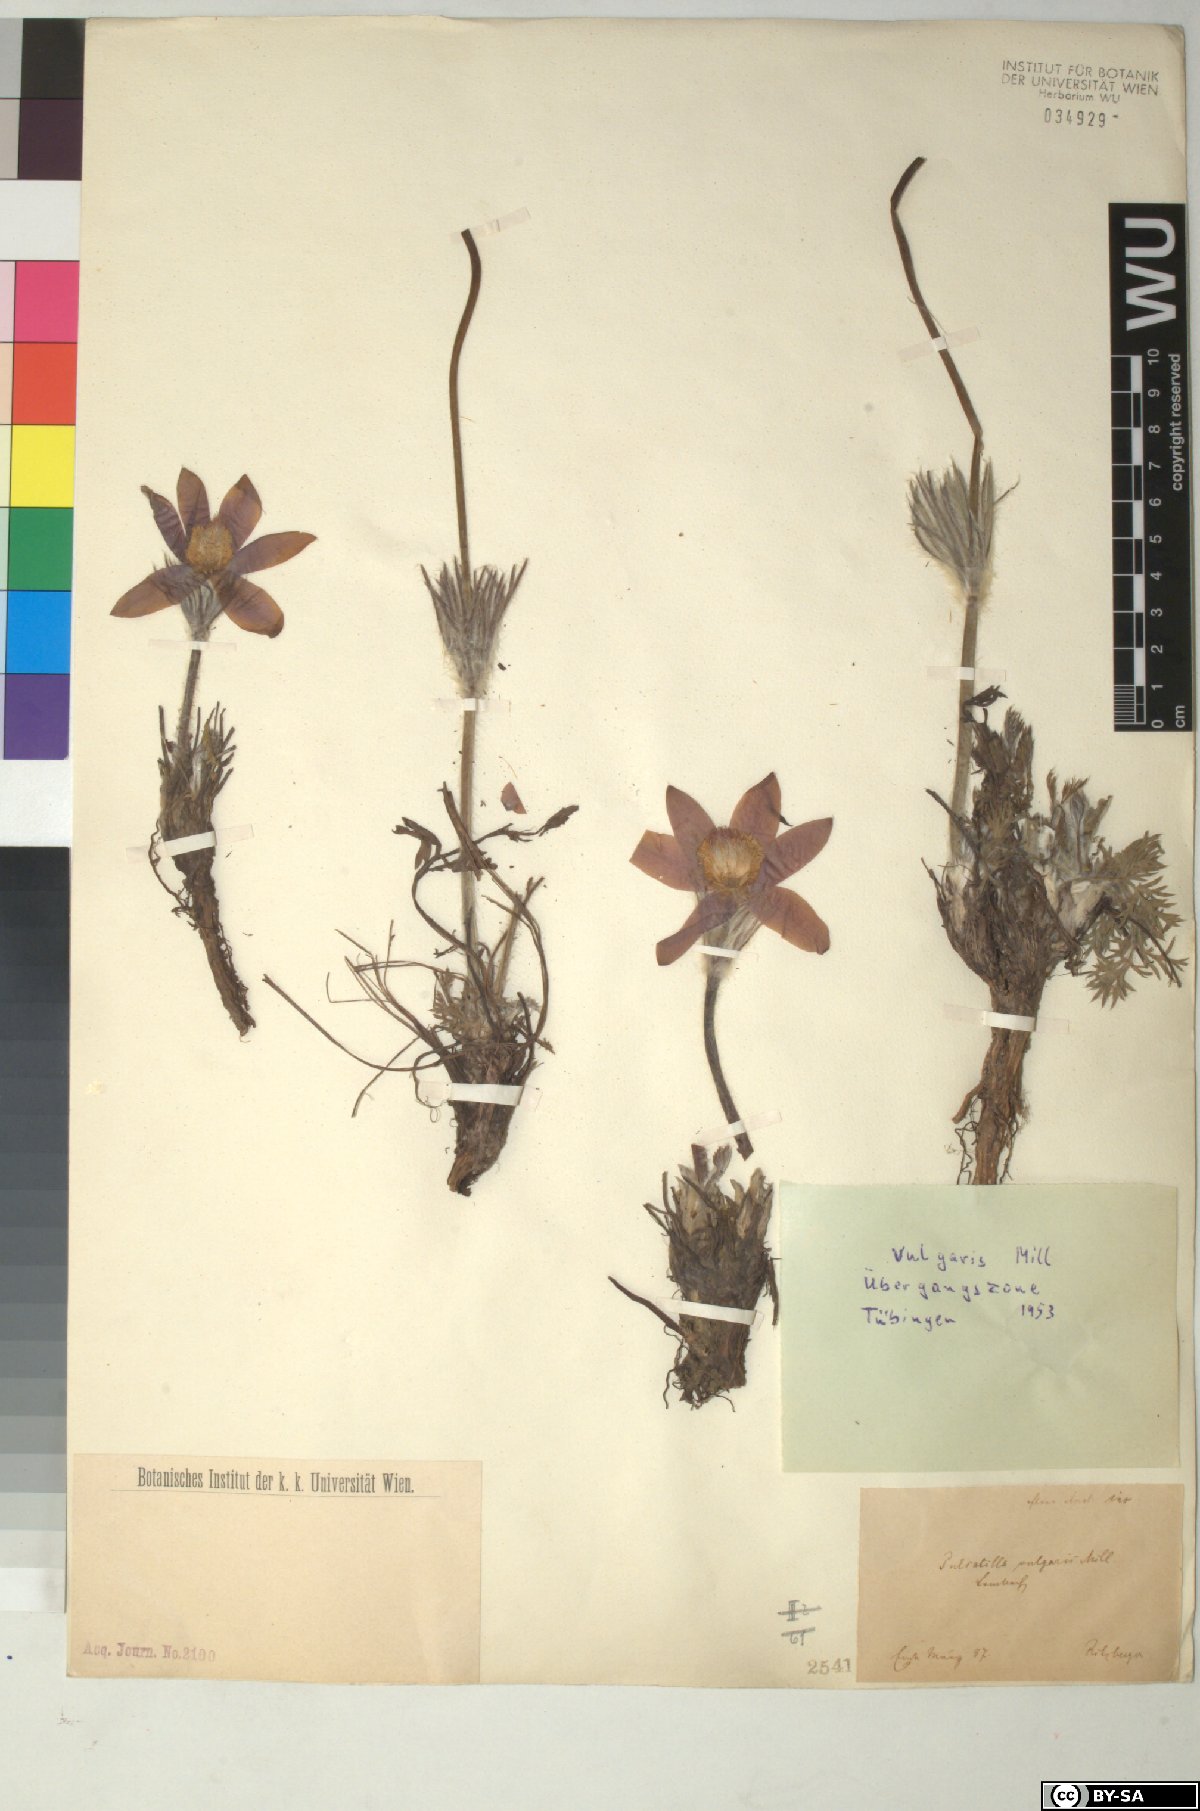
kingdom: Plantae
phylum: Tracheophyta
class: Magnoliopsida
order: Ranunculales
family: Ranunculaceae
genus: Pulsatilla
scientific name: Pulsatilla vulgaris
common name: Pasqueflower
